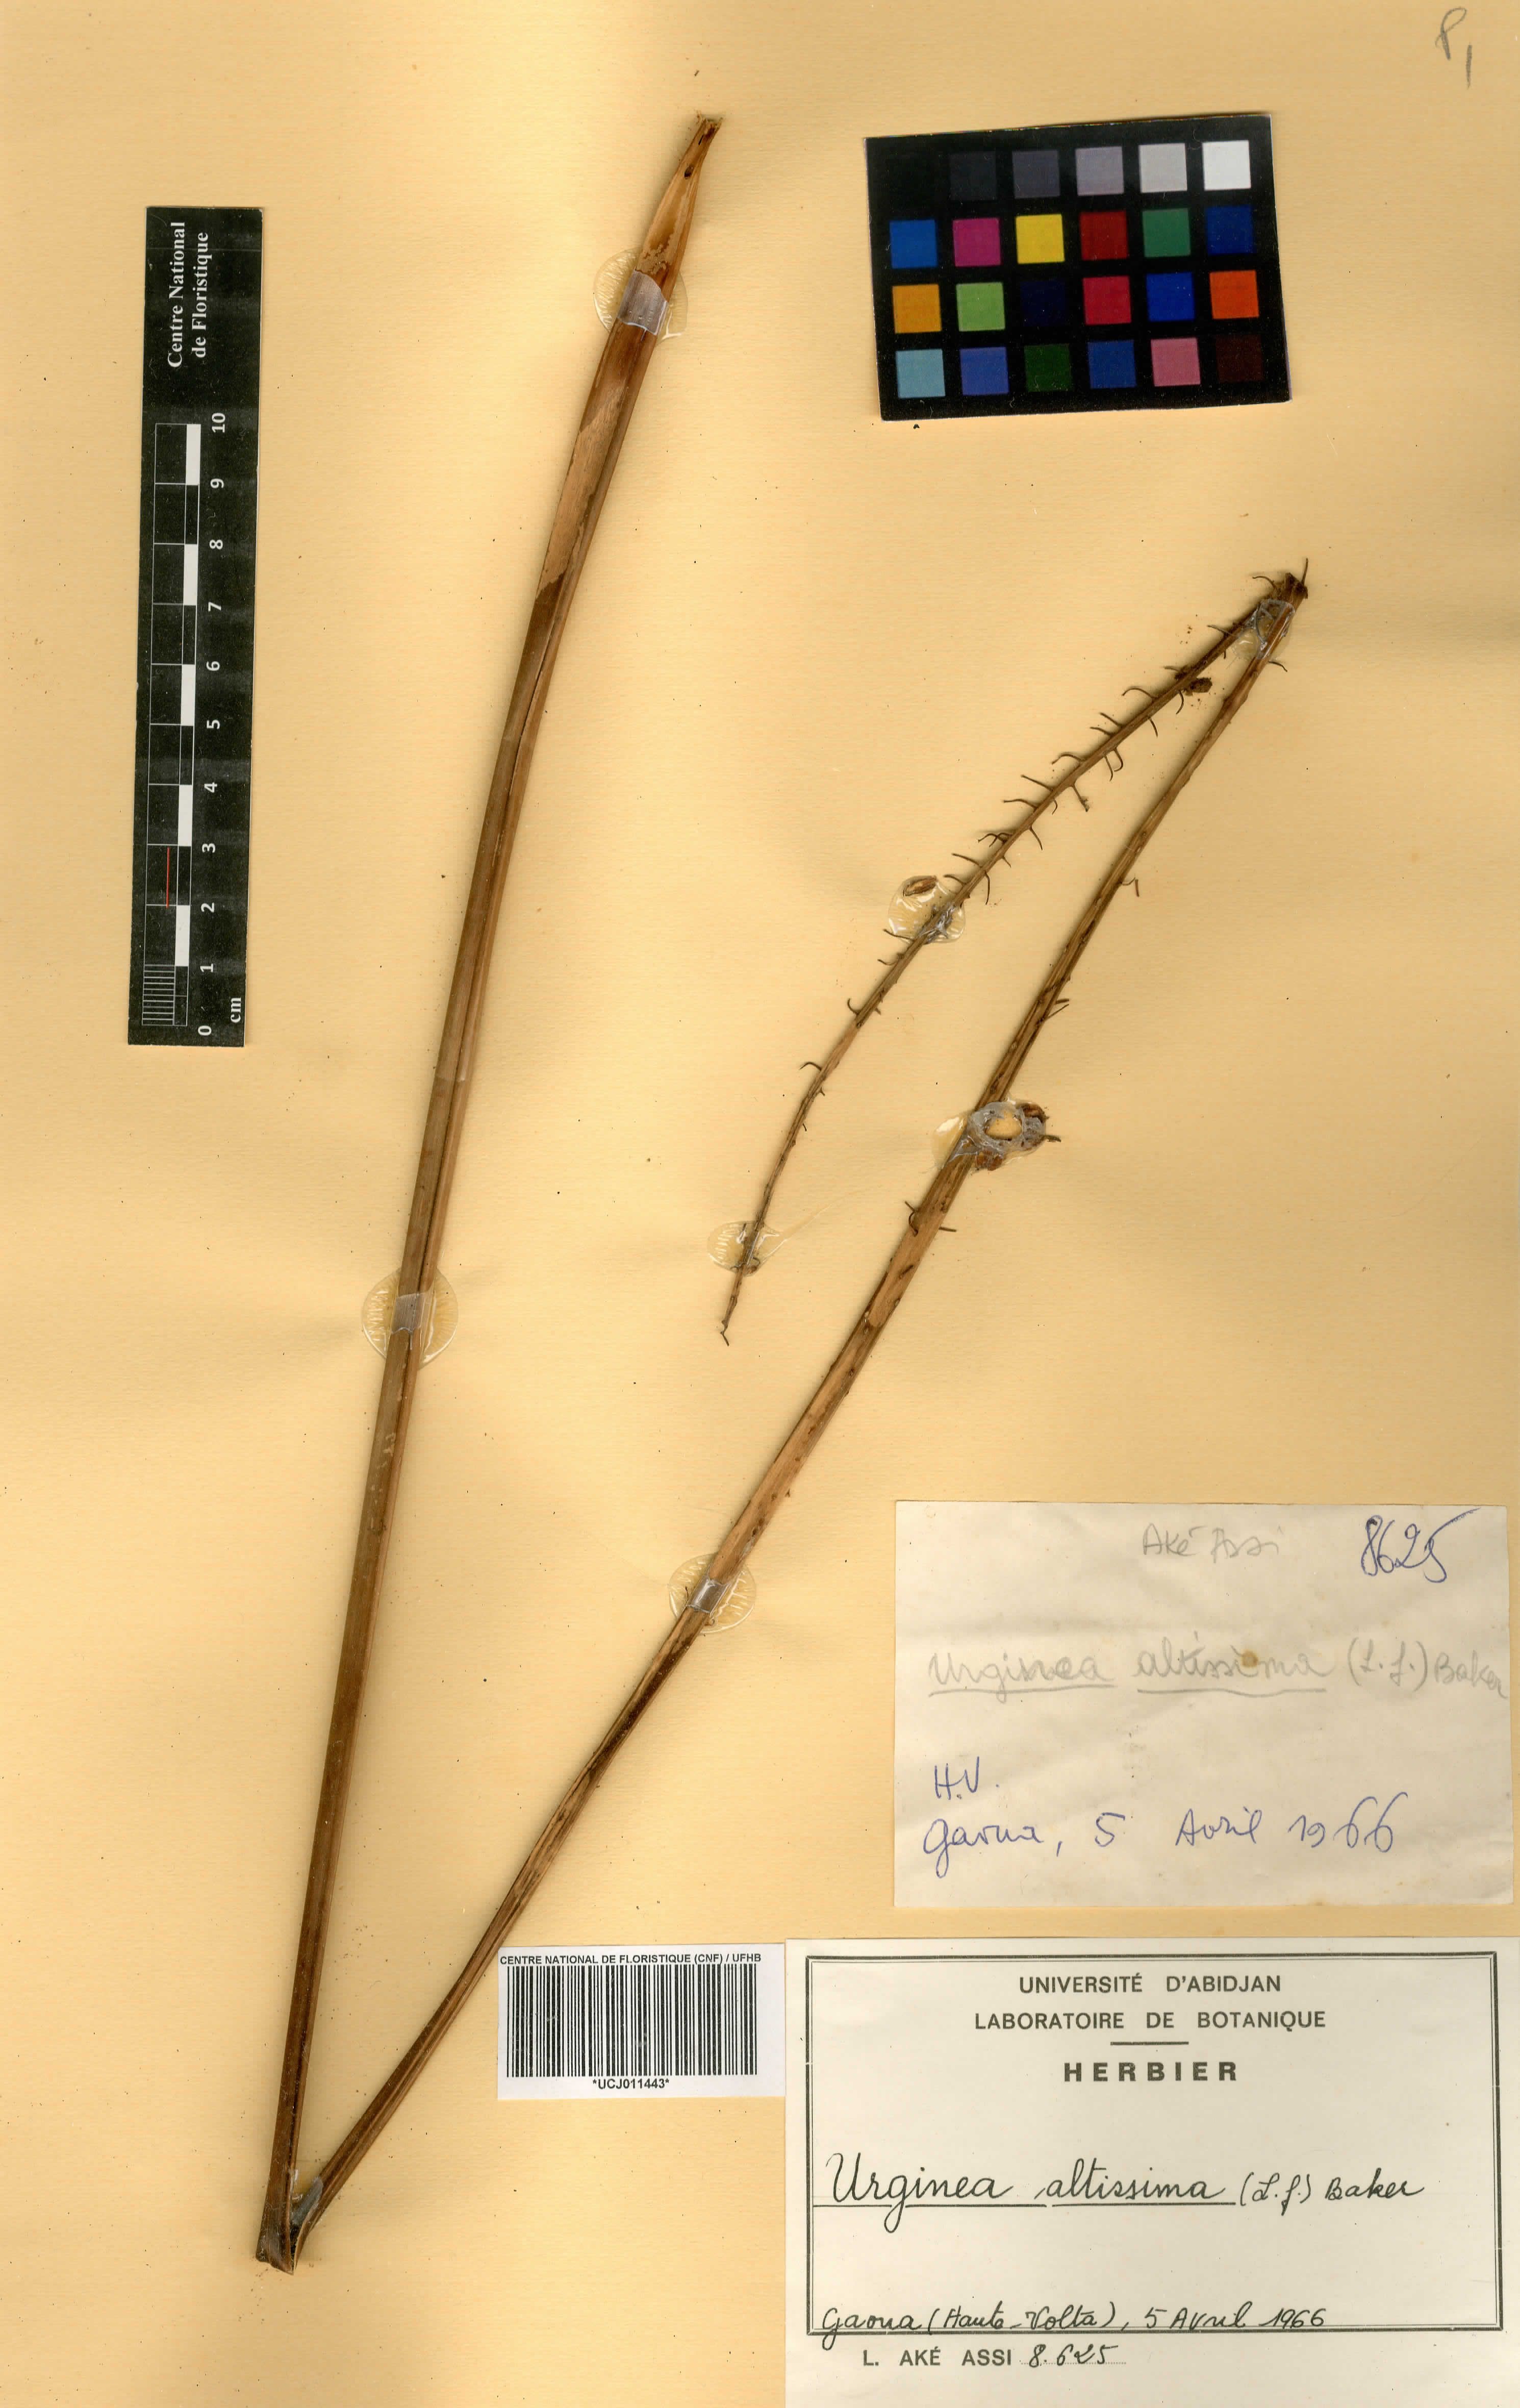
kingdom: Plantae
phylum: Tracheophyta
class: Liliopsida
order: Asparagales
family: Asparagaceae
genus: Drimia
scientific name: Drimia altissima
